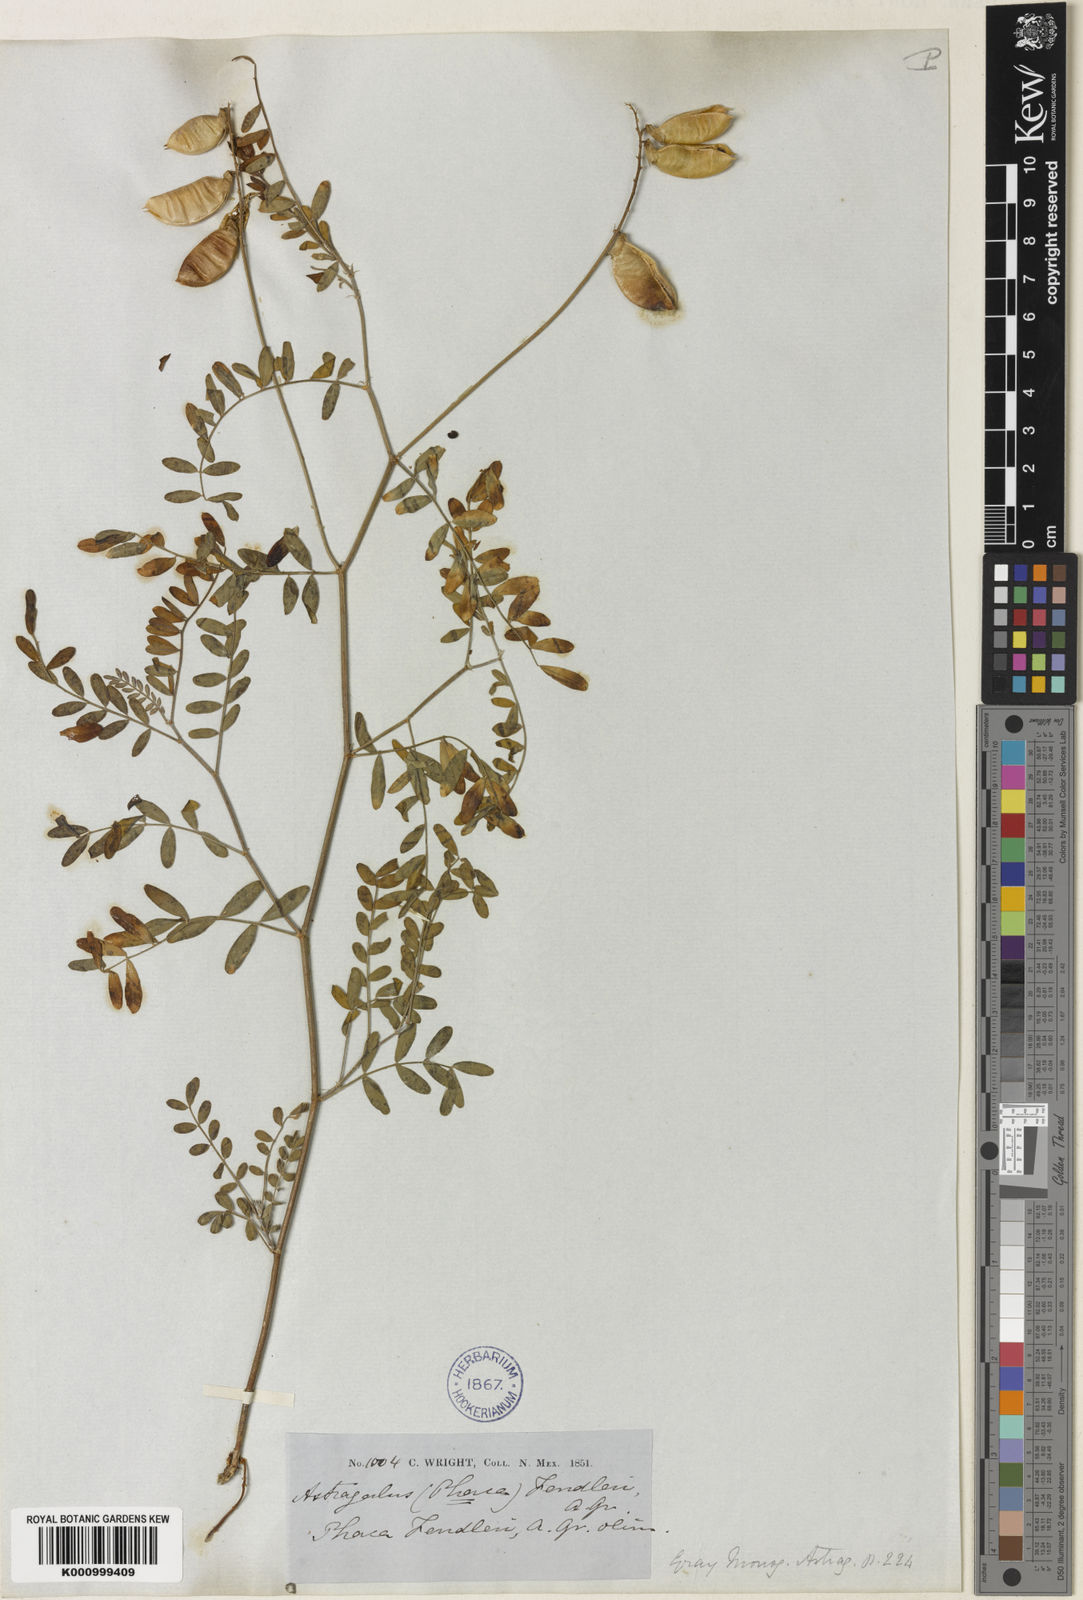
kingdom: Plantae
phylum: Tracheophyta
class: Magnoliopsida
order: Fabales
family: Fabaceae
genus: Astragalus
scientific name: Astragalus flexuosus
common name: Pliant milk-vetch
